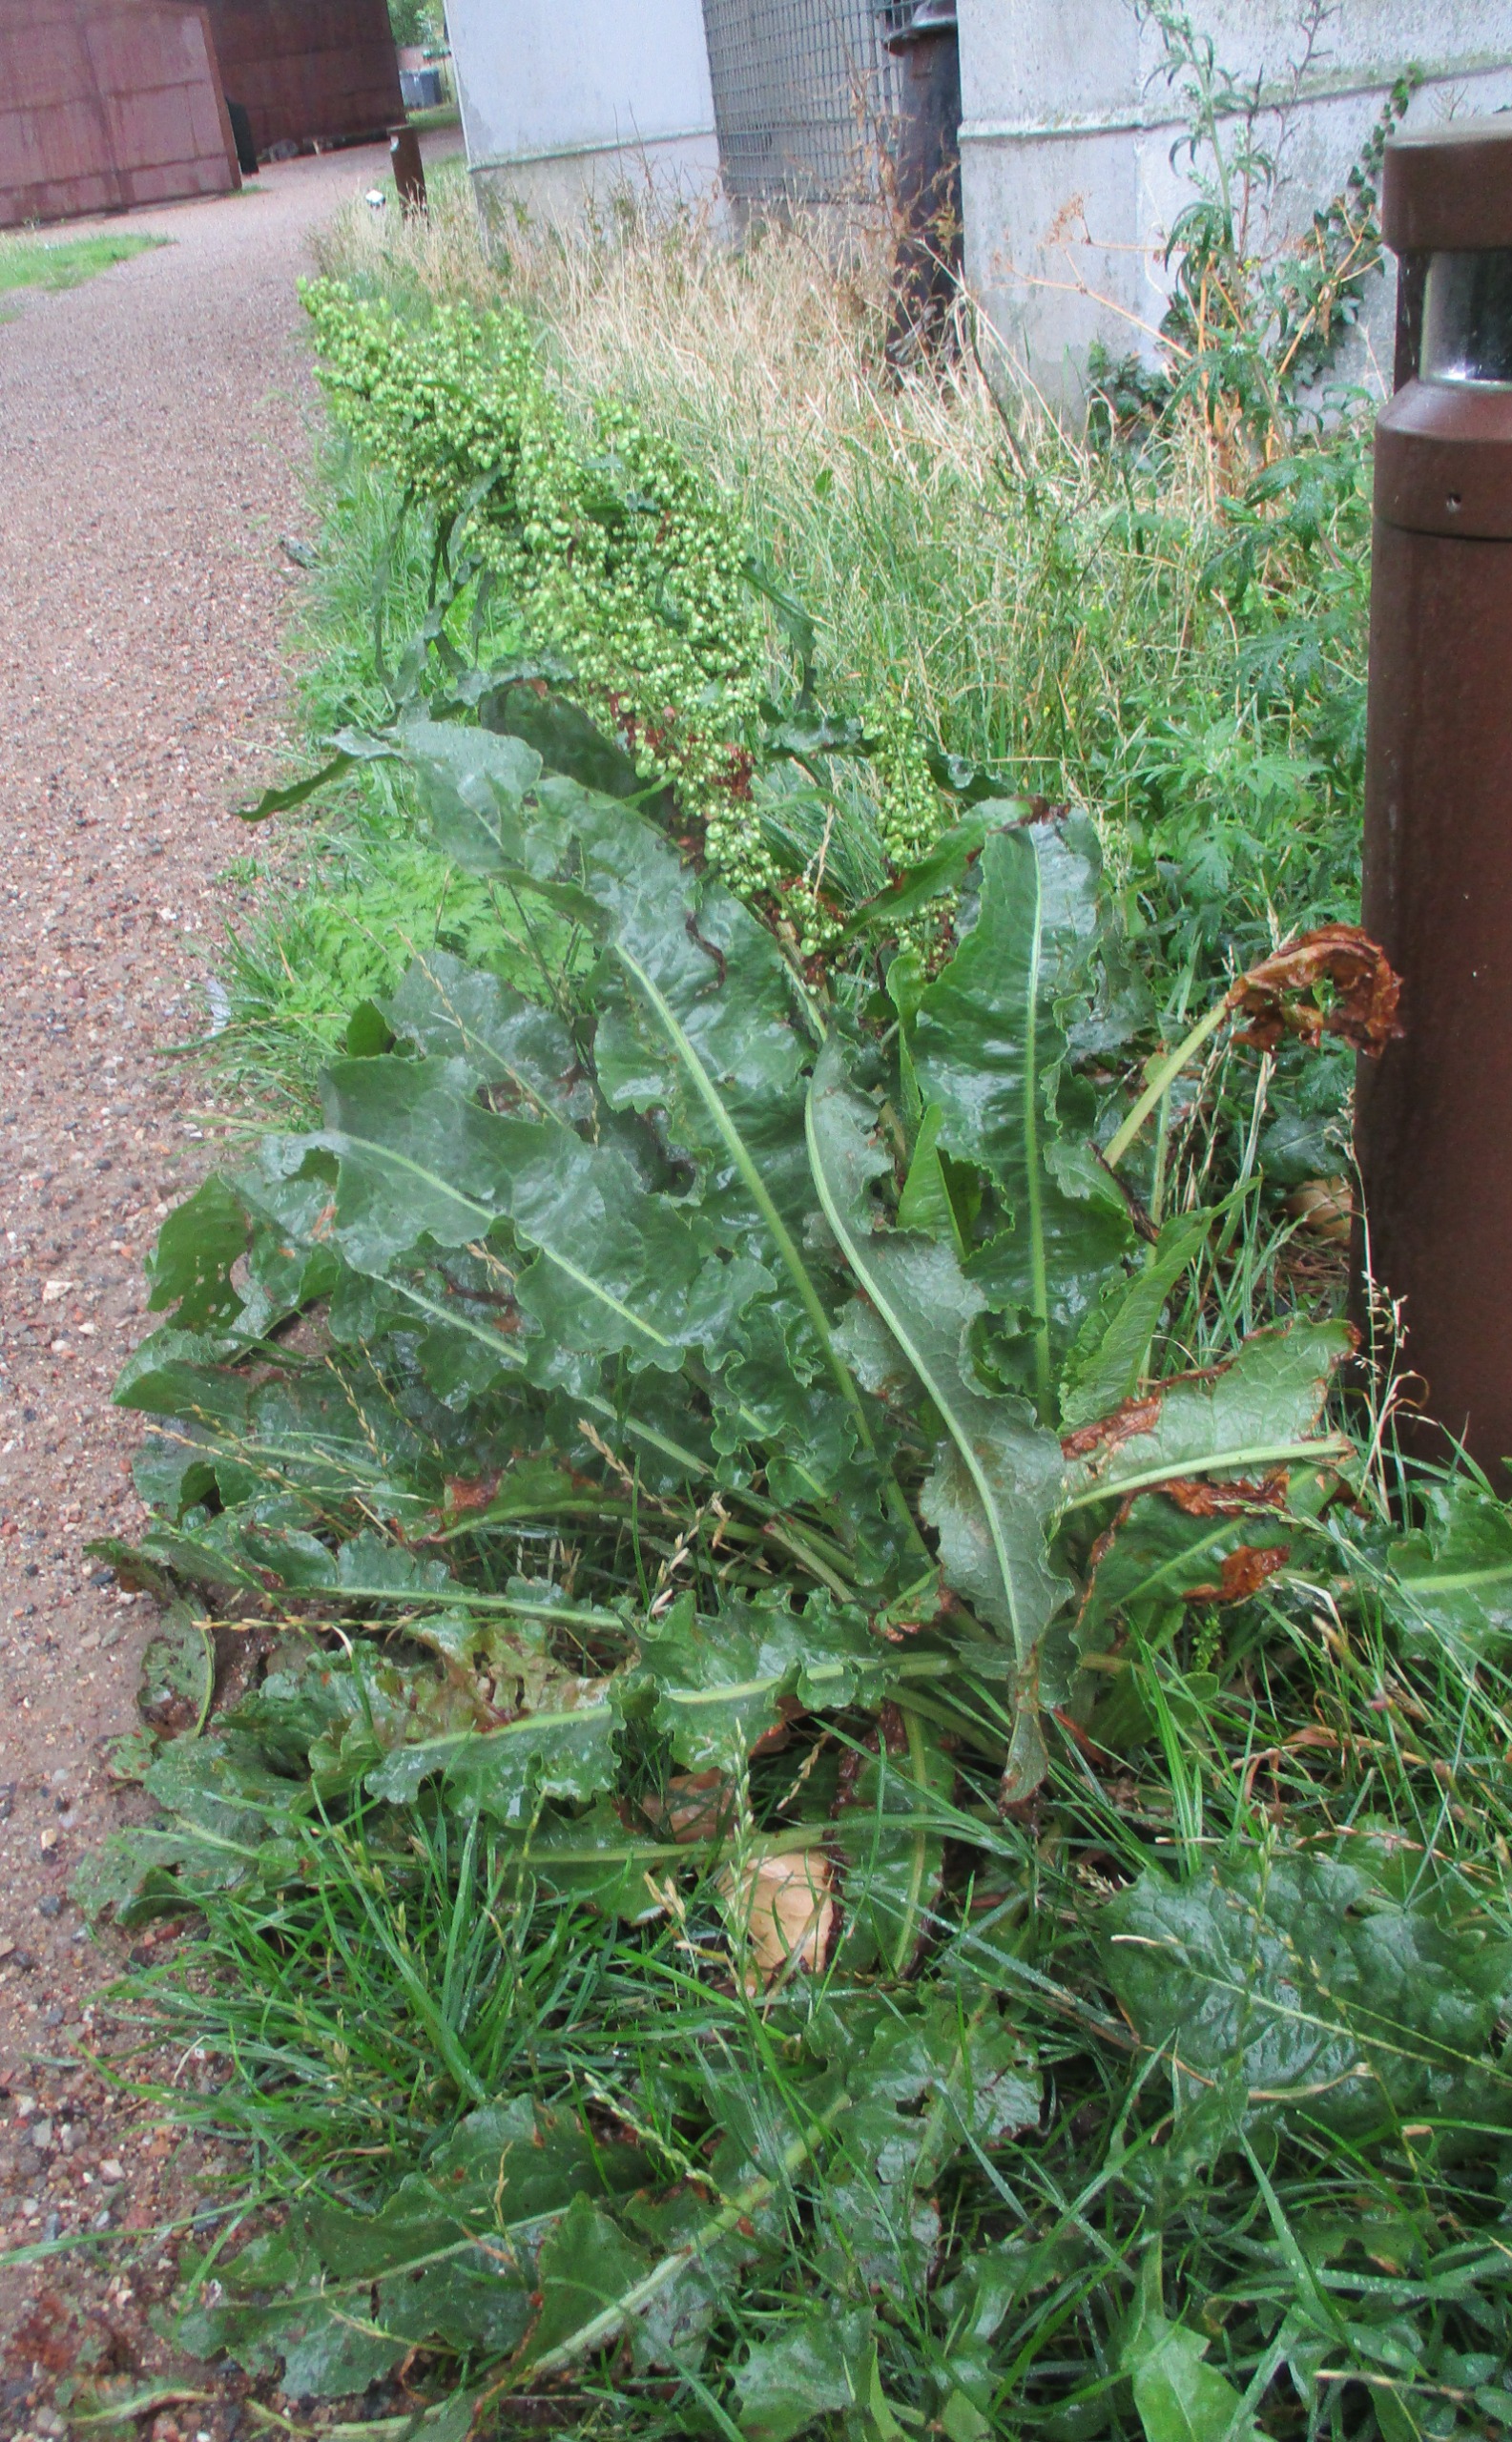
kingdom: Plantae
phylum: Tracheophyta
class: Magnoliopsida
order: Caryophyllales
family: Polygonaceae
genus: Rumex
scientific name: Rumex crispus
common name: Kruset skræppe
